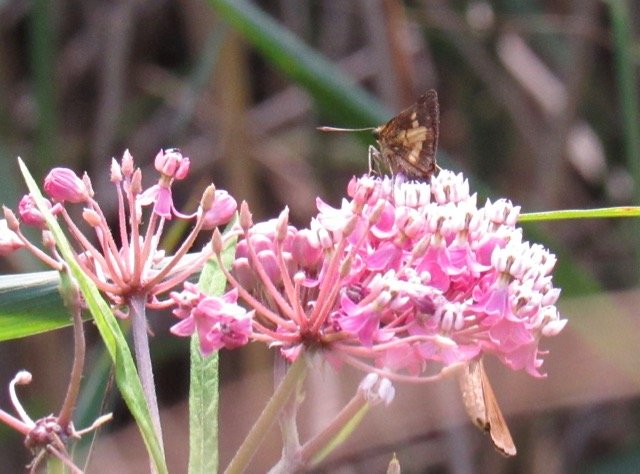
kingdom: Animalia
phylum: Arthropoda
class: Insecta
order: Lepidoptera
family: Hesperiidae
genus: Poanes
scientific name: Poanes massasoit
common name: Mulberry Wing
